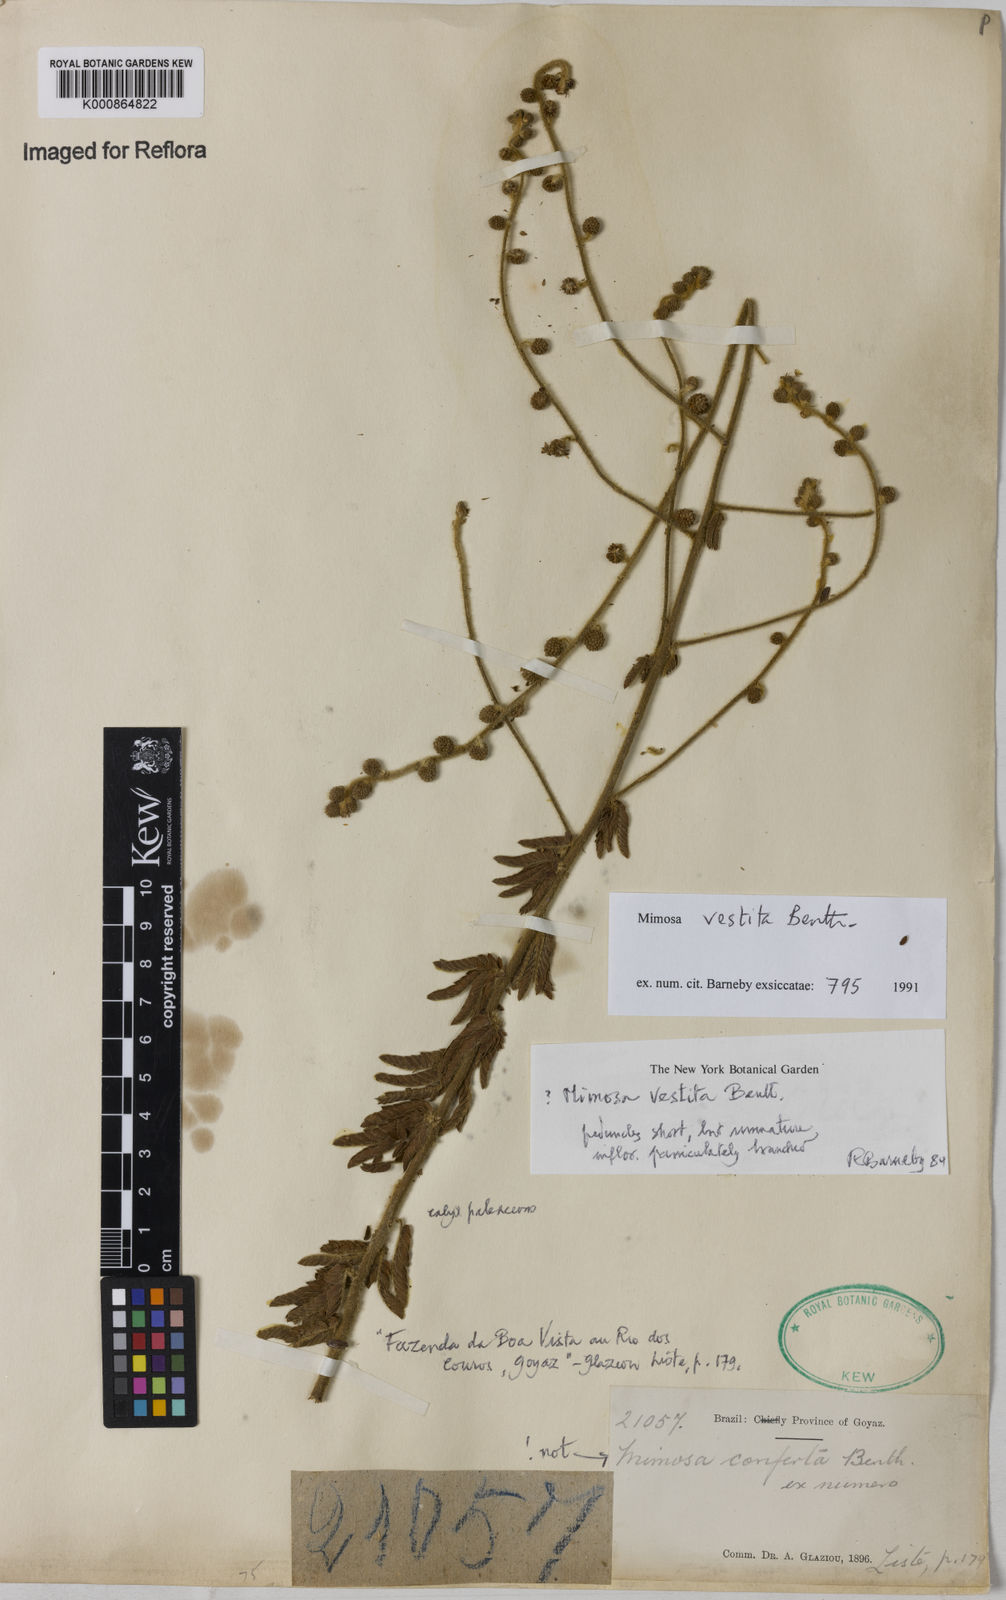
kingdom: Plantae
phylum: Tracheophyta
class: Magnoliopsida
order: Fabales
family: Fabaceae
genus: Mimosa
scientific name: Mimosa vestita
